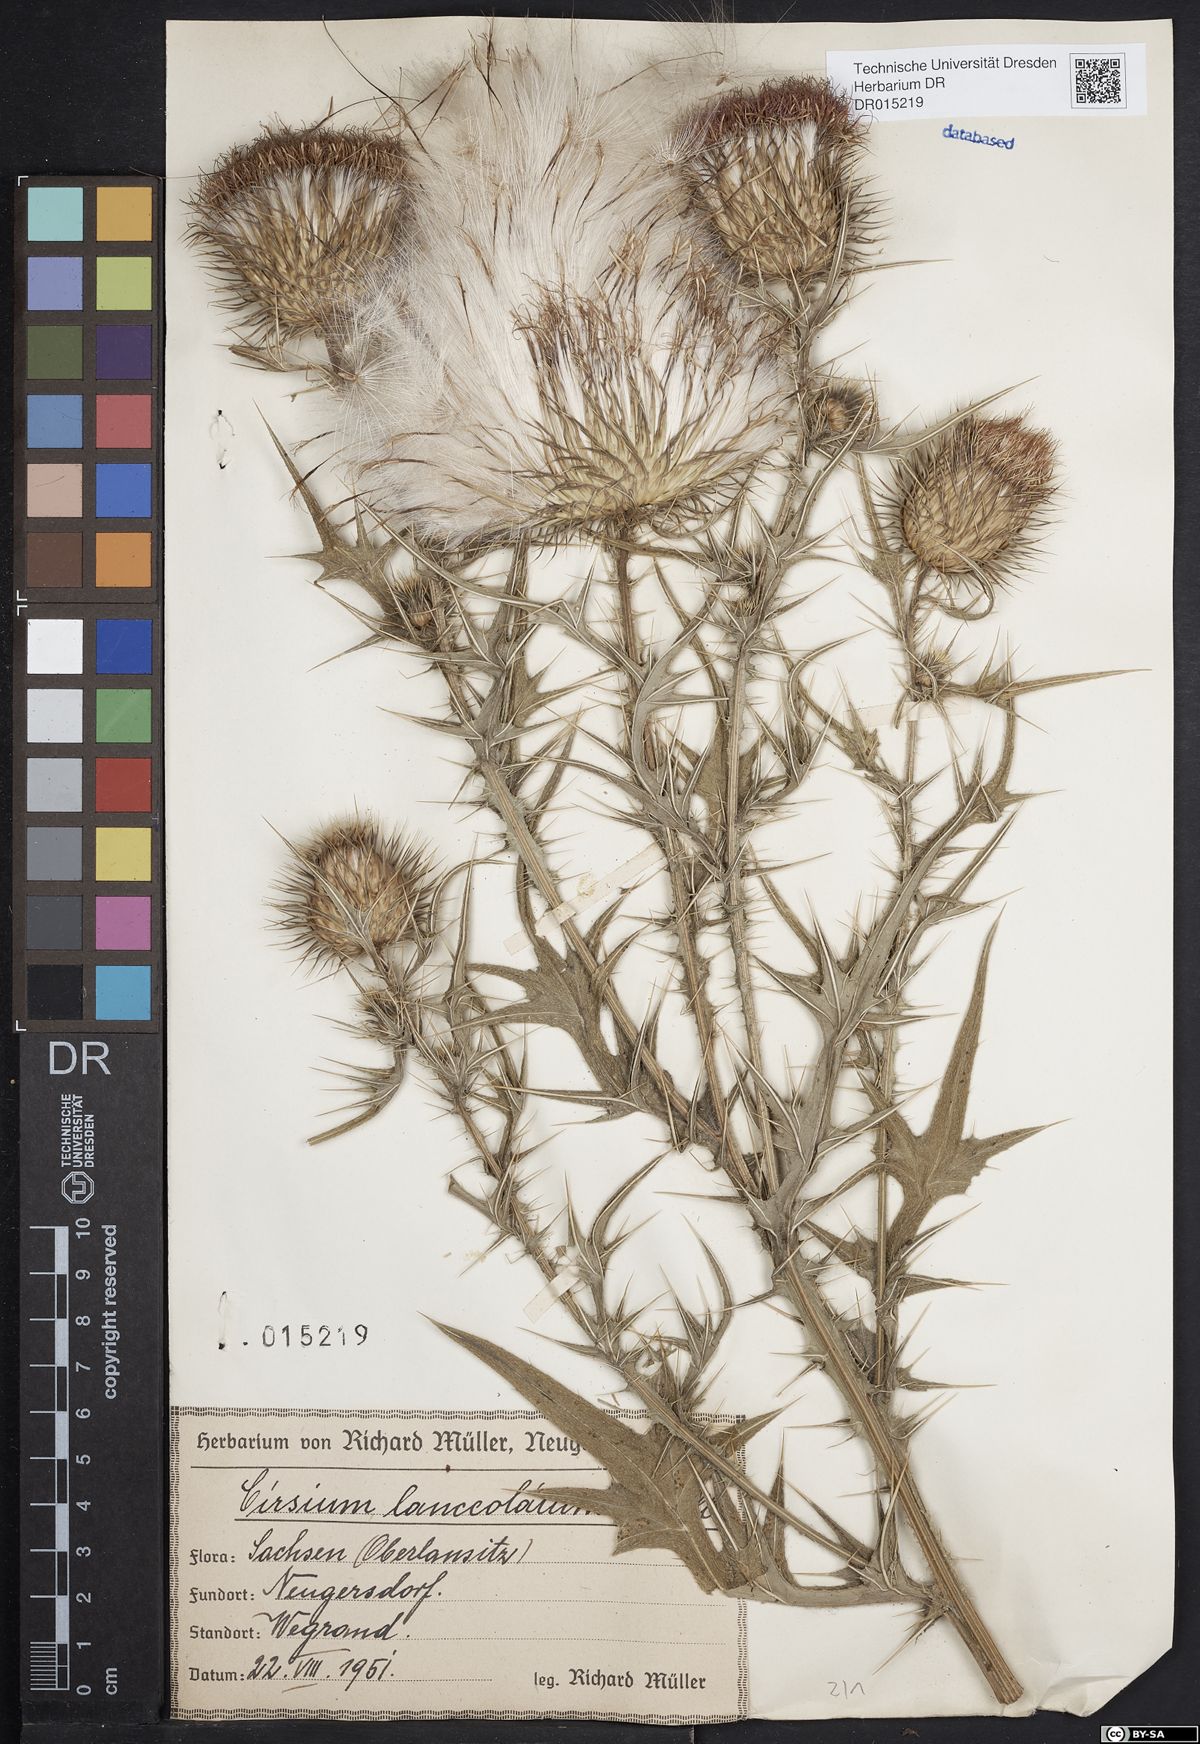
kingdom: Plantae
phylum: Tracheophyta
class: Magnoliopsida
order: Asterales
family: Asteraceae
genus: Cirsium
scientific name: Cirsium vulgare
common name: Bull thistle
